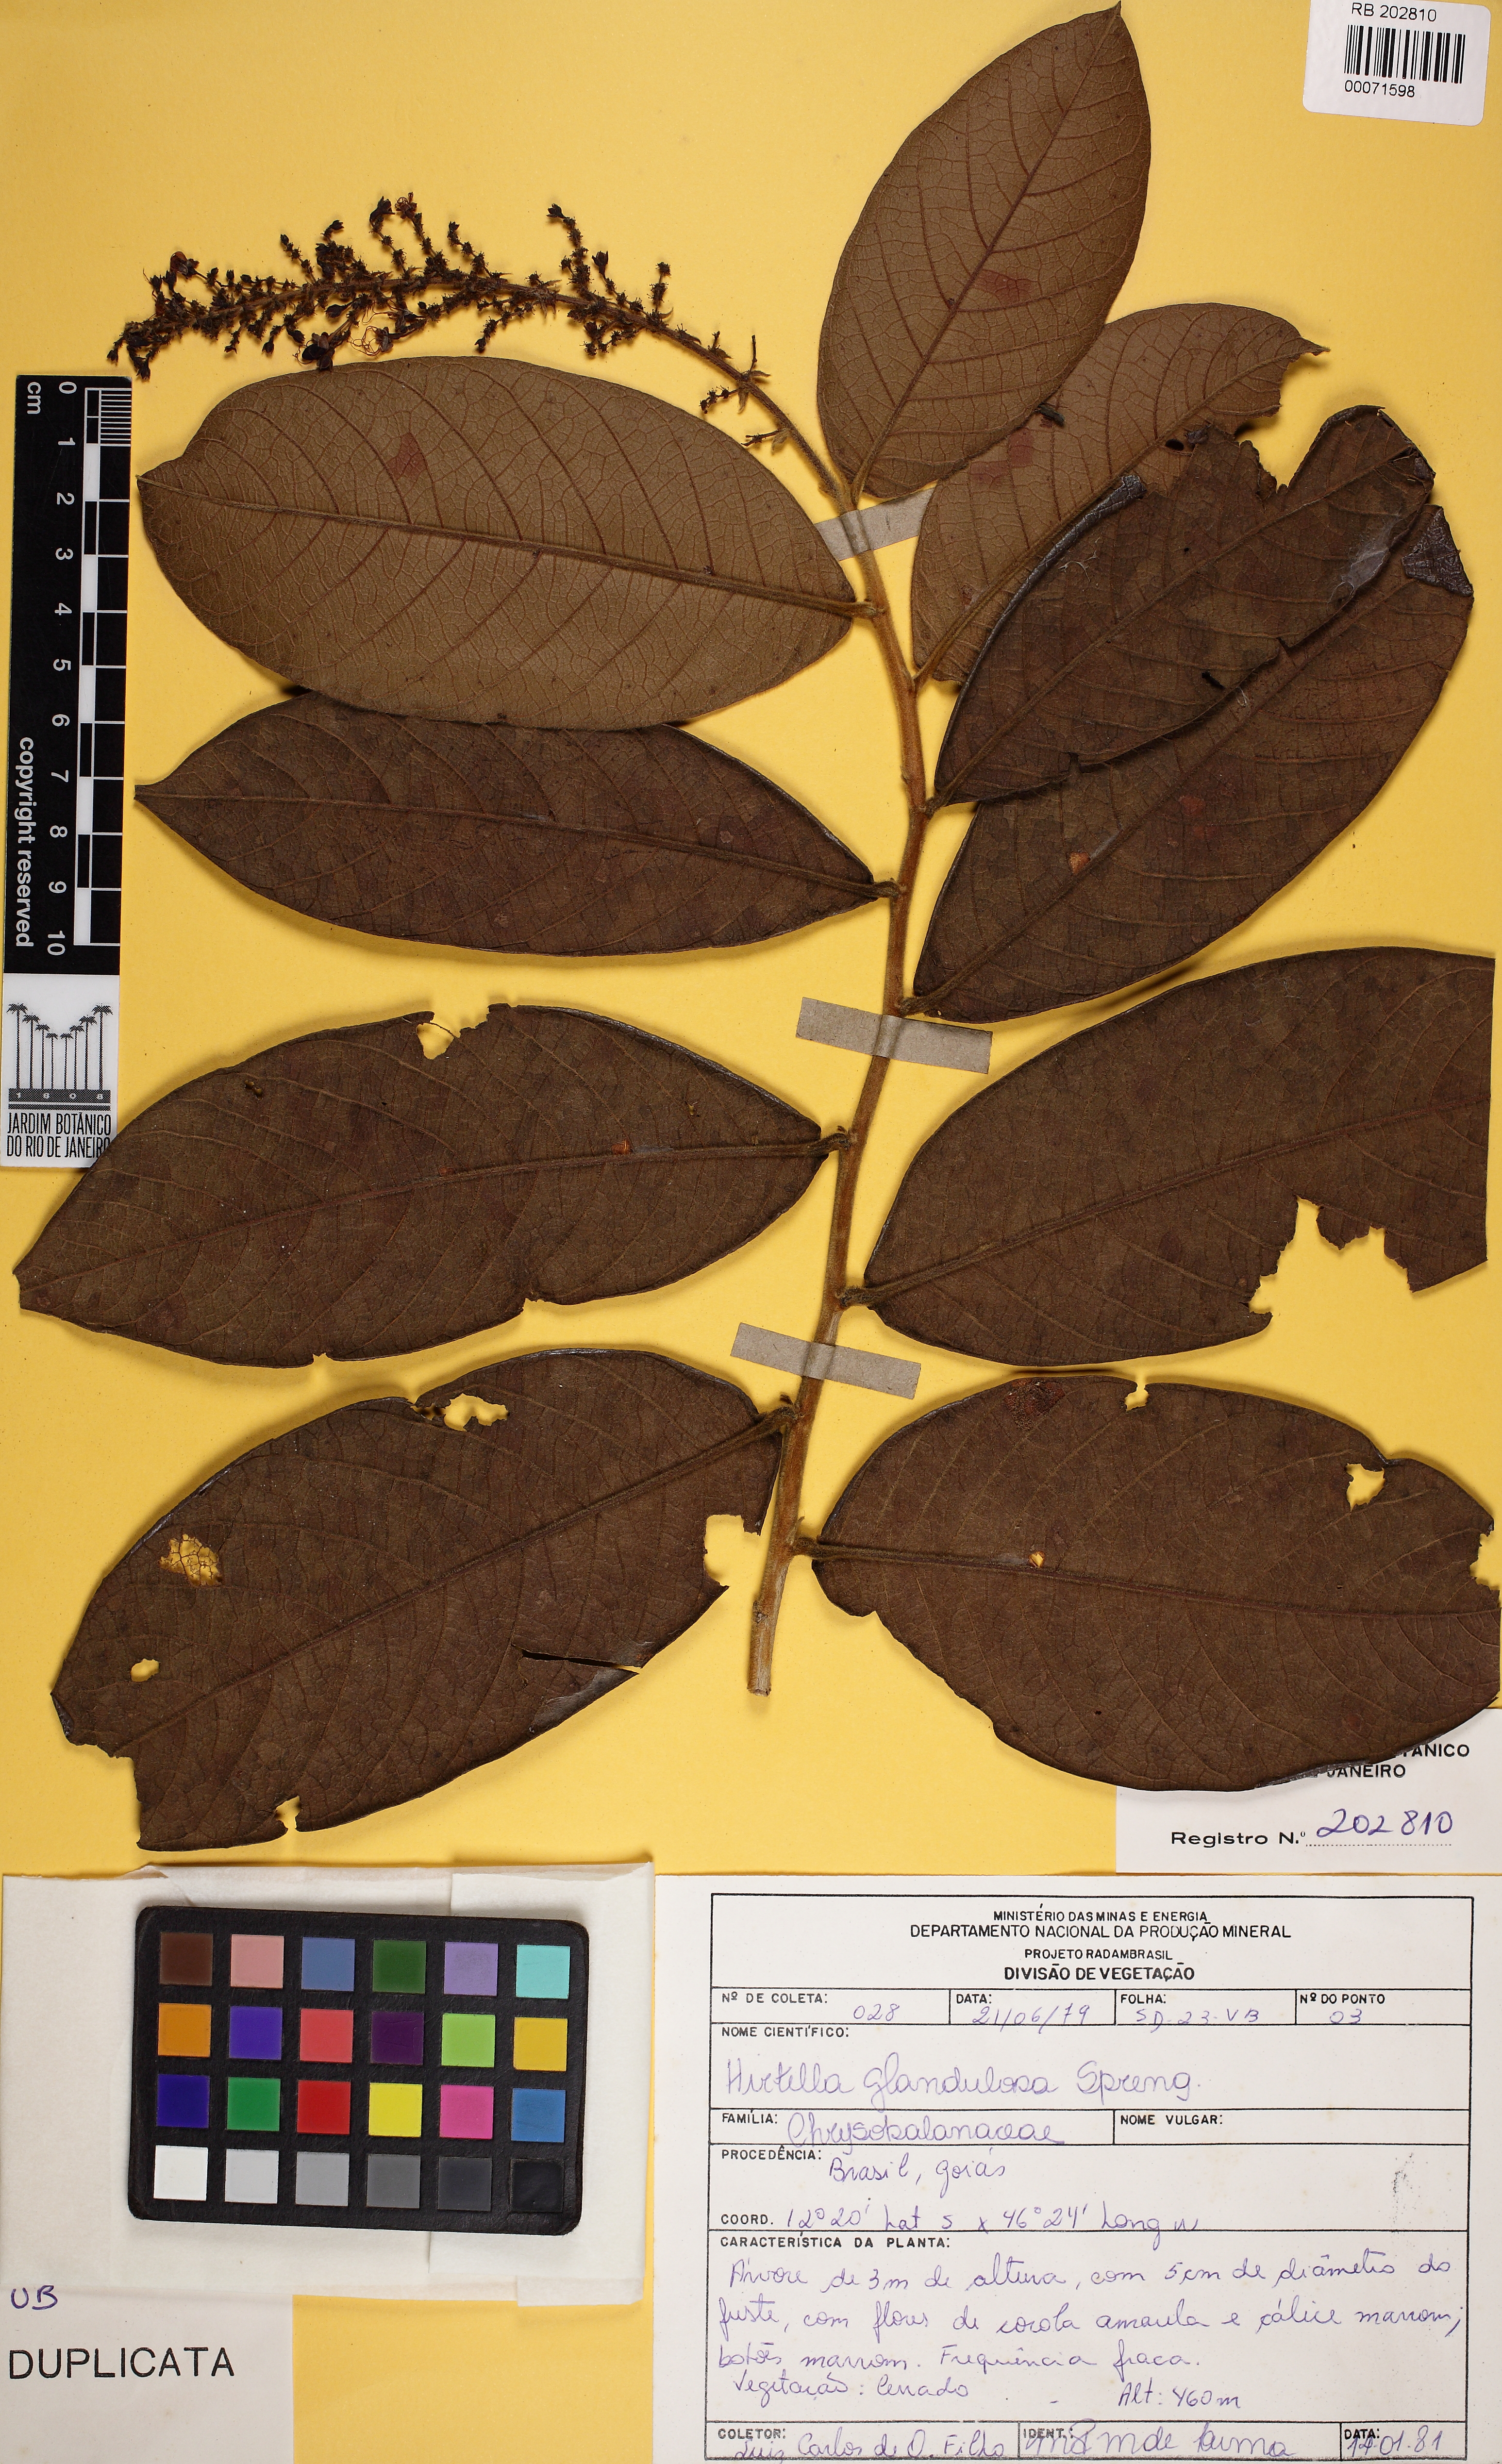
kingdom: Plantae
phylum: Tracheophyta
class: Magnoliopsida
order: Malpighiales
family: Chrysobalanaceae
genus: Hirtella
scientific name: Hirtella glandulosa
